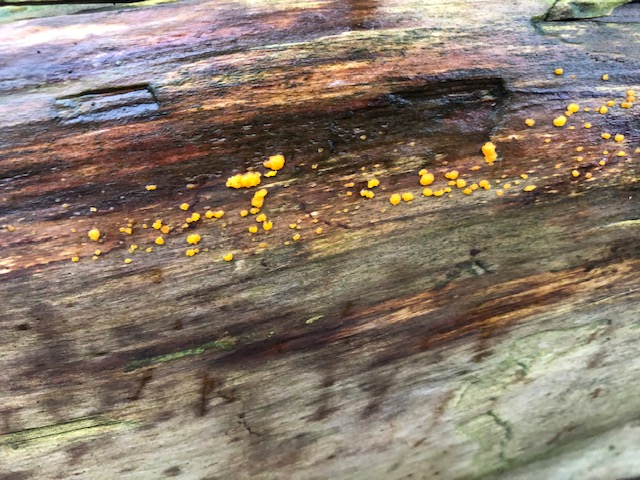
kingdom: Fungi
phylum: Basidiomycota
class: Dacrymycetes
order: Dacrymycetales
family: Dacrymycetaceae
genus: Dacrymyces
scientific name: Dacrymyces
